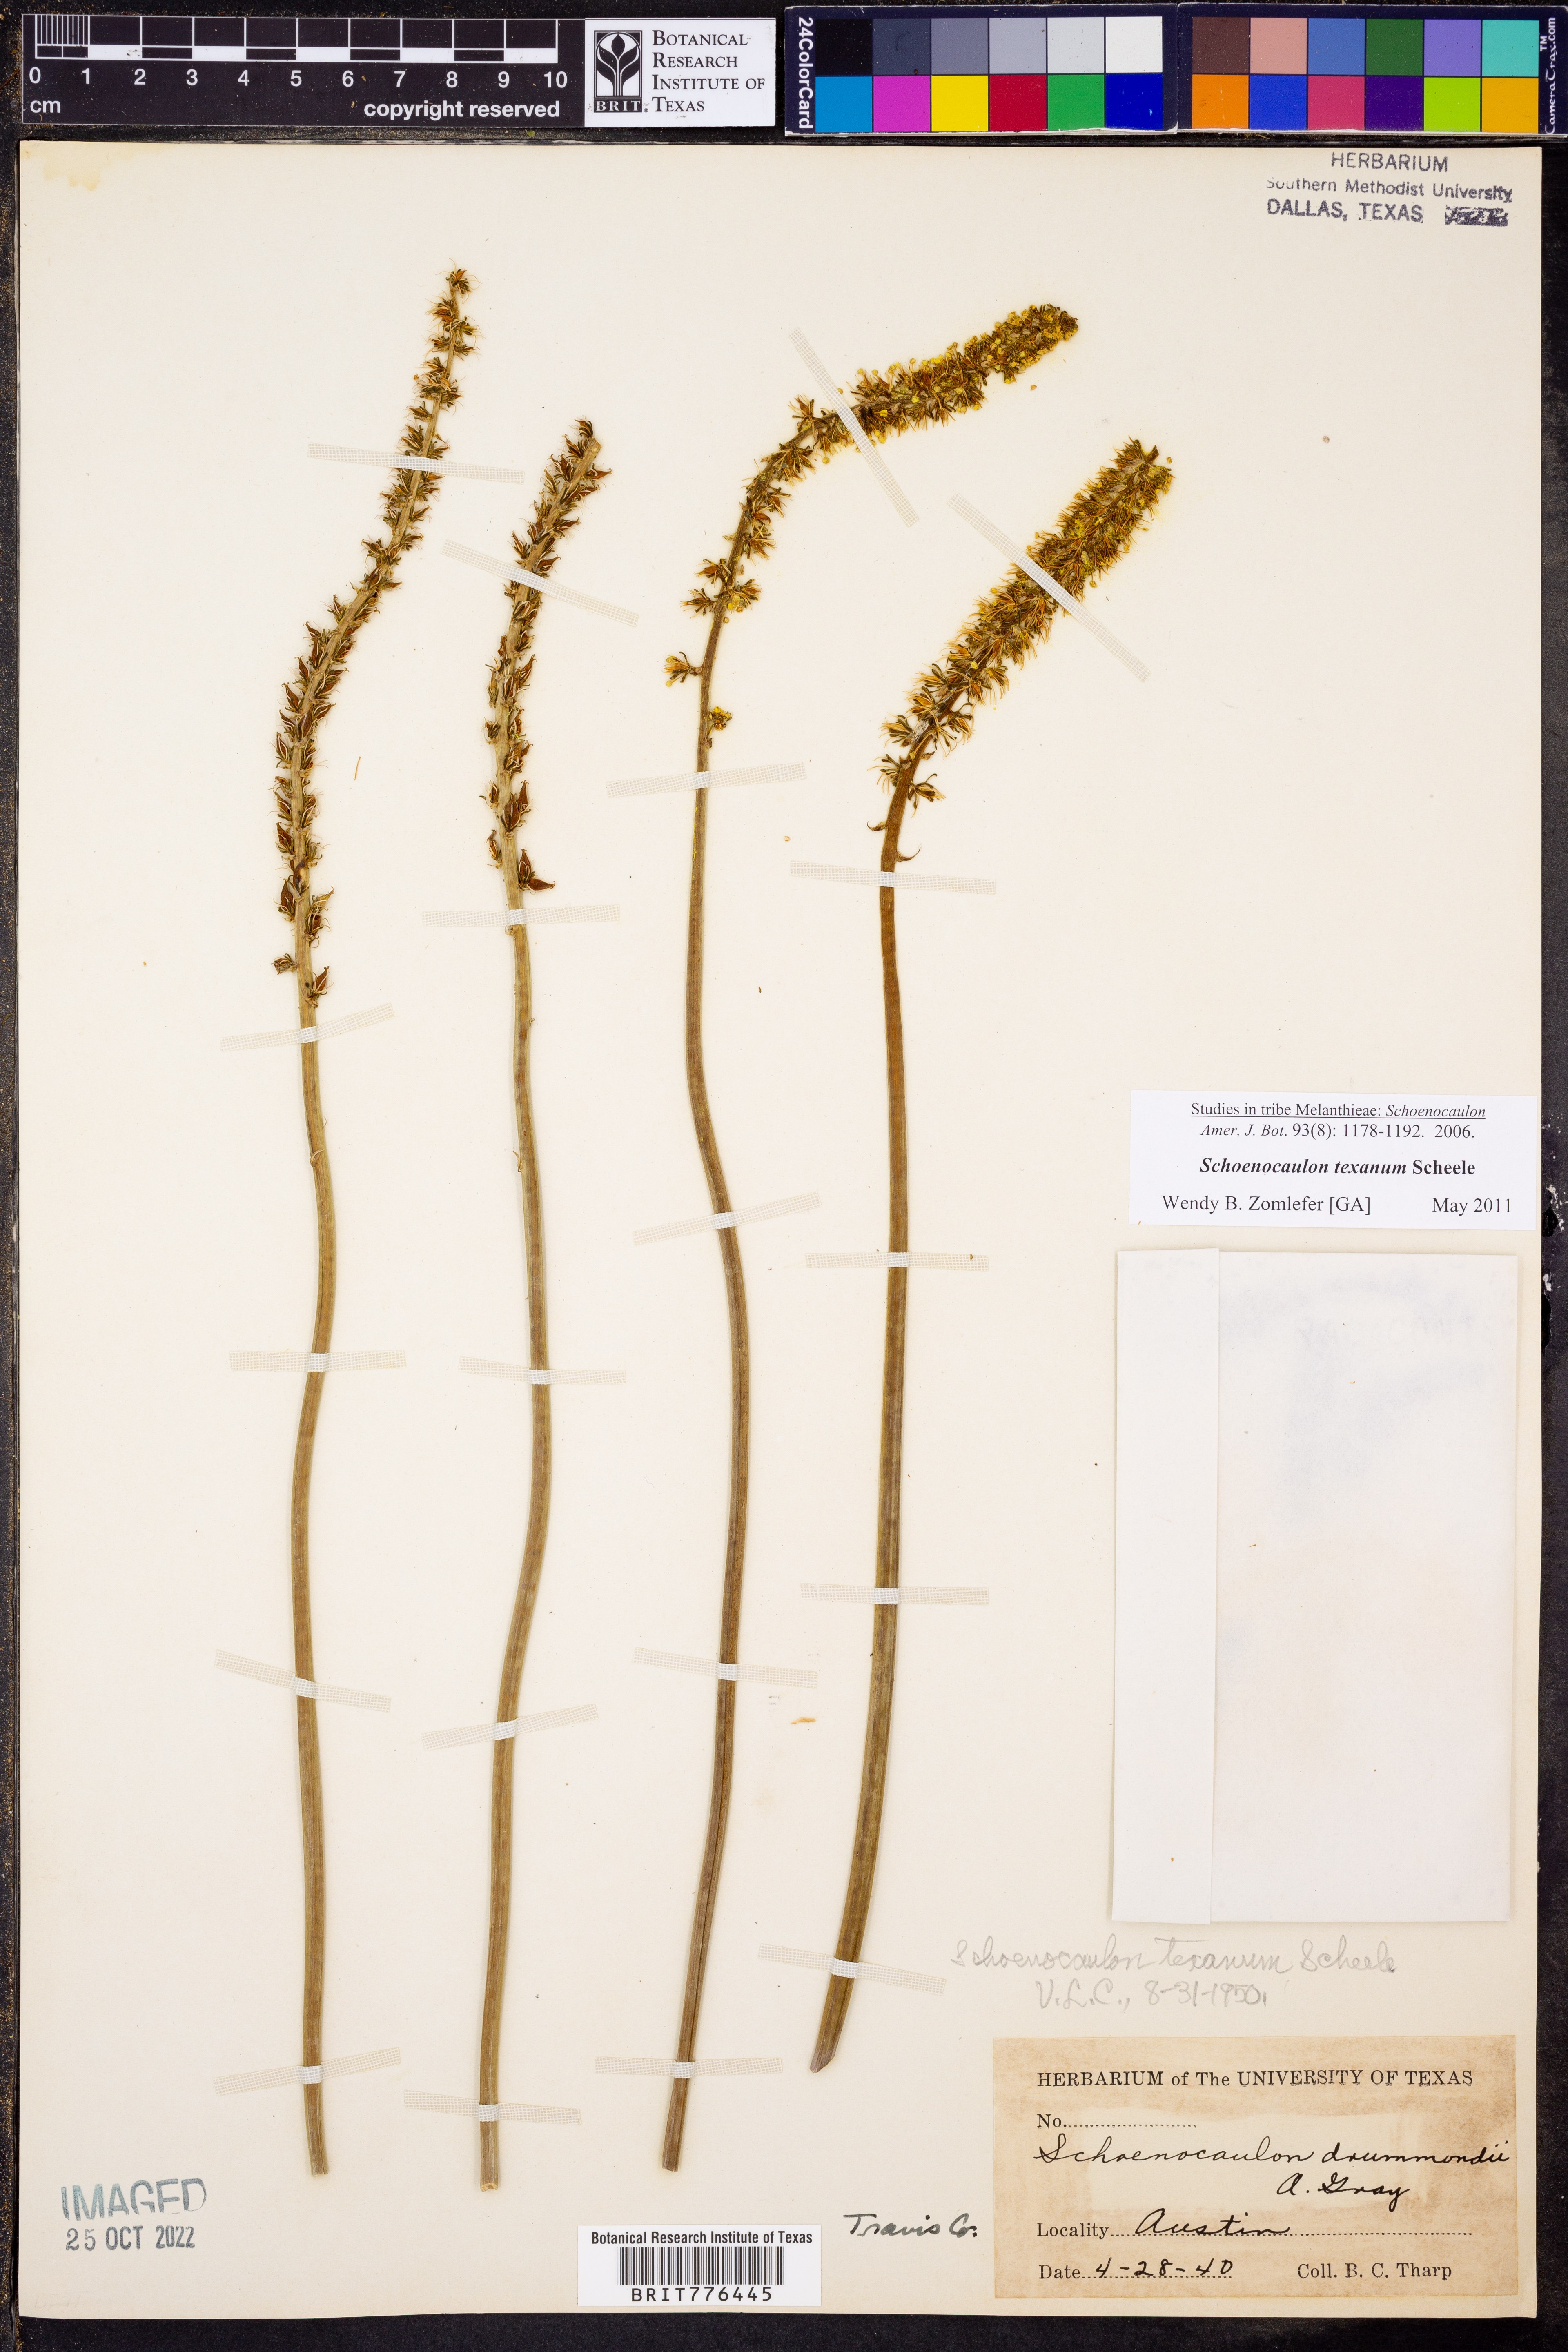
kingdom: Plantae
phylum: Tracheophyta
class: Liliopsida
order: Liliales
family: Melanthiaceae
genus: Schoenocaulon
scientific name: Schoenocaulon texanum
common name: Texas feather-shank
